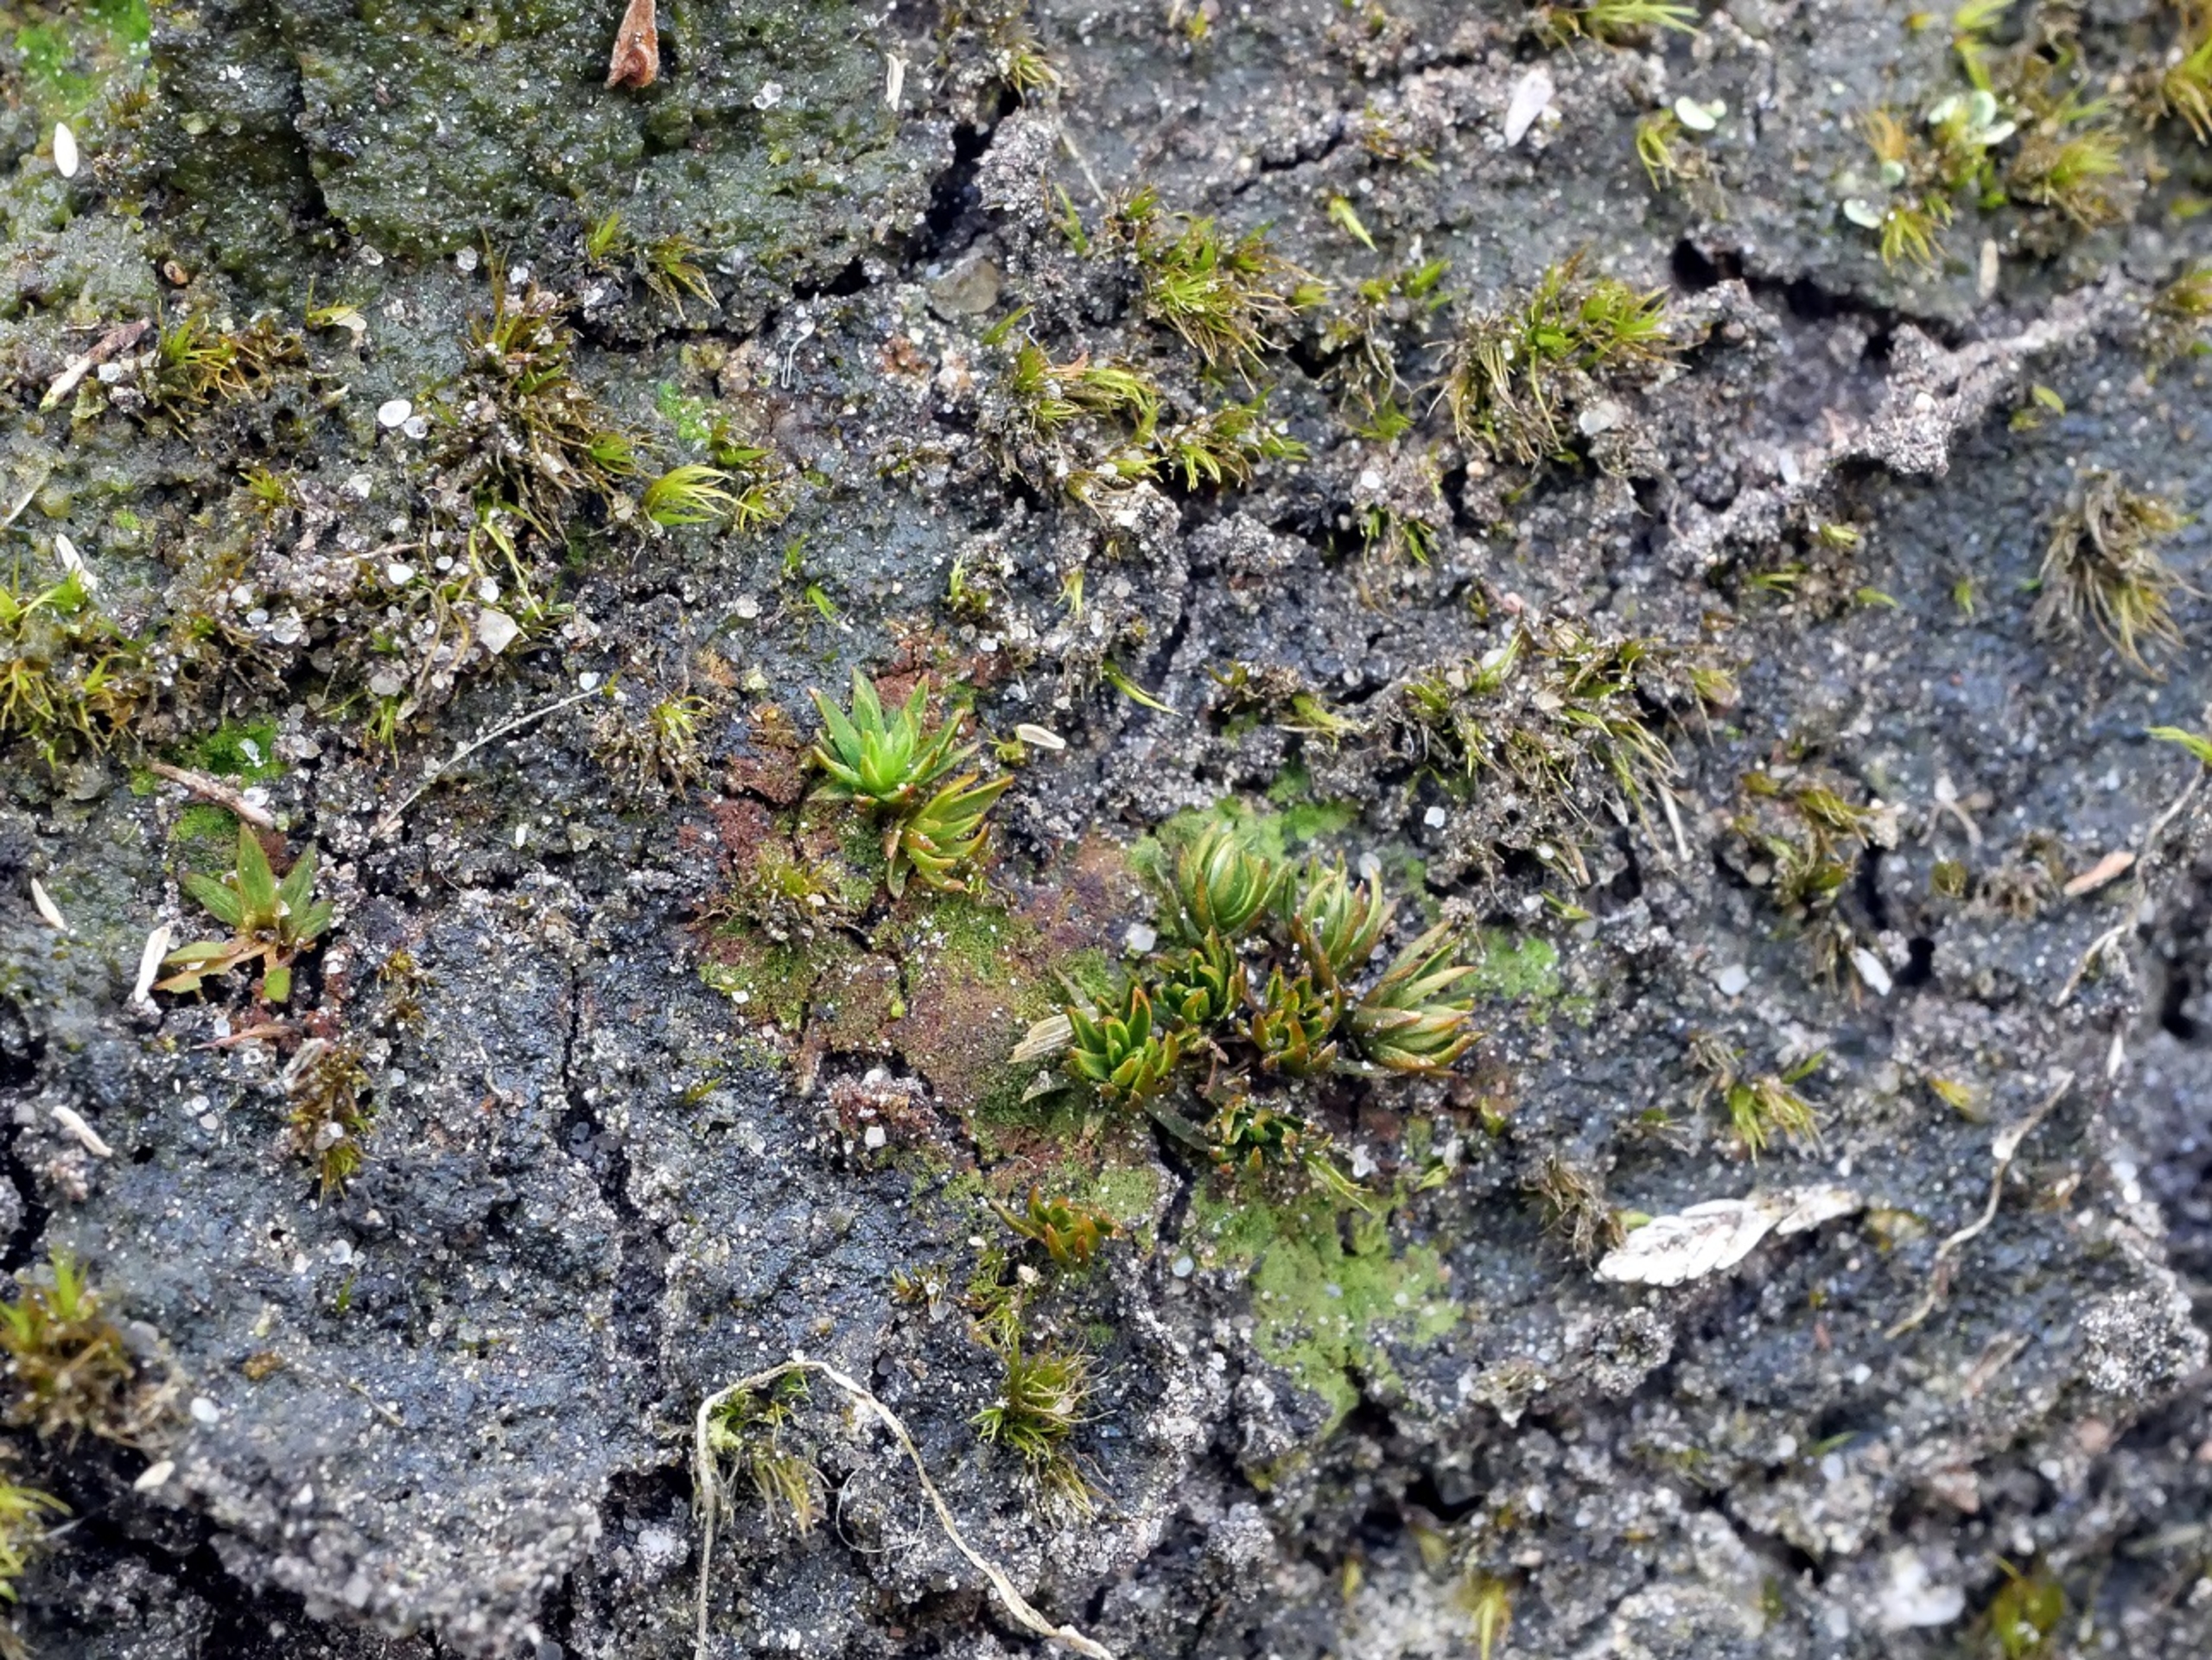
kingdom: Plantae
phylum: Bryophyta
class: Polytrichopsida
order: Polytrichales
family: Polytrichaceae
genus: Pogonatum
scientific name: Pogonatum nanum
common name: Dværg-urnekapsel
